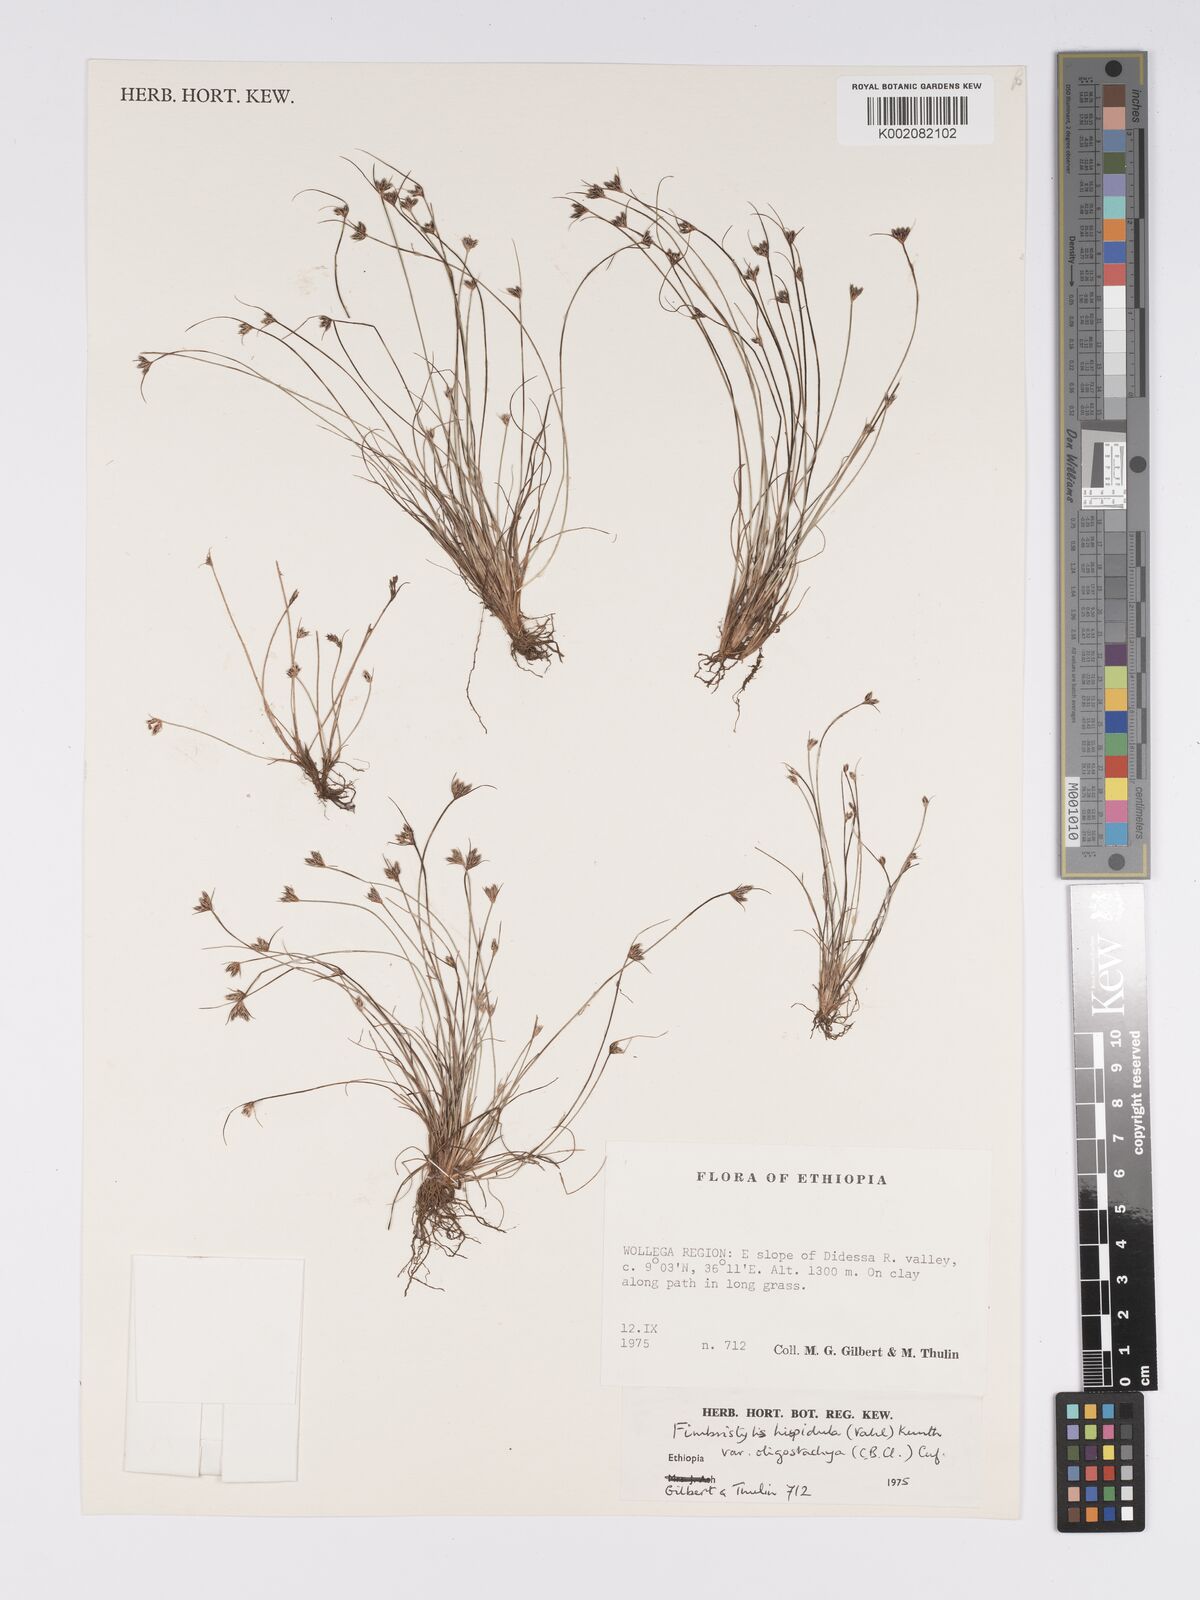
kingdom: Plantae
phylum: Tracheophyta
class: Liliopsida
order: Poales
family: Cyperaceae
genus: Bulbostylis
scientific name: Bulbostylis hispidula
